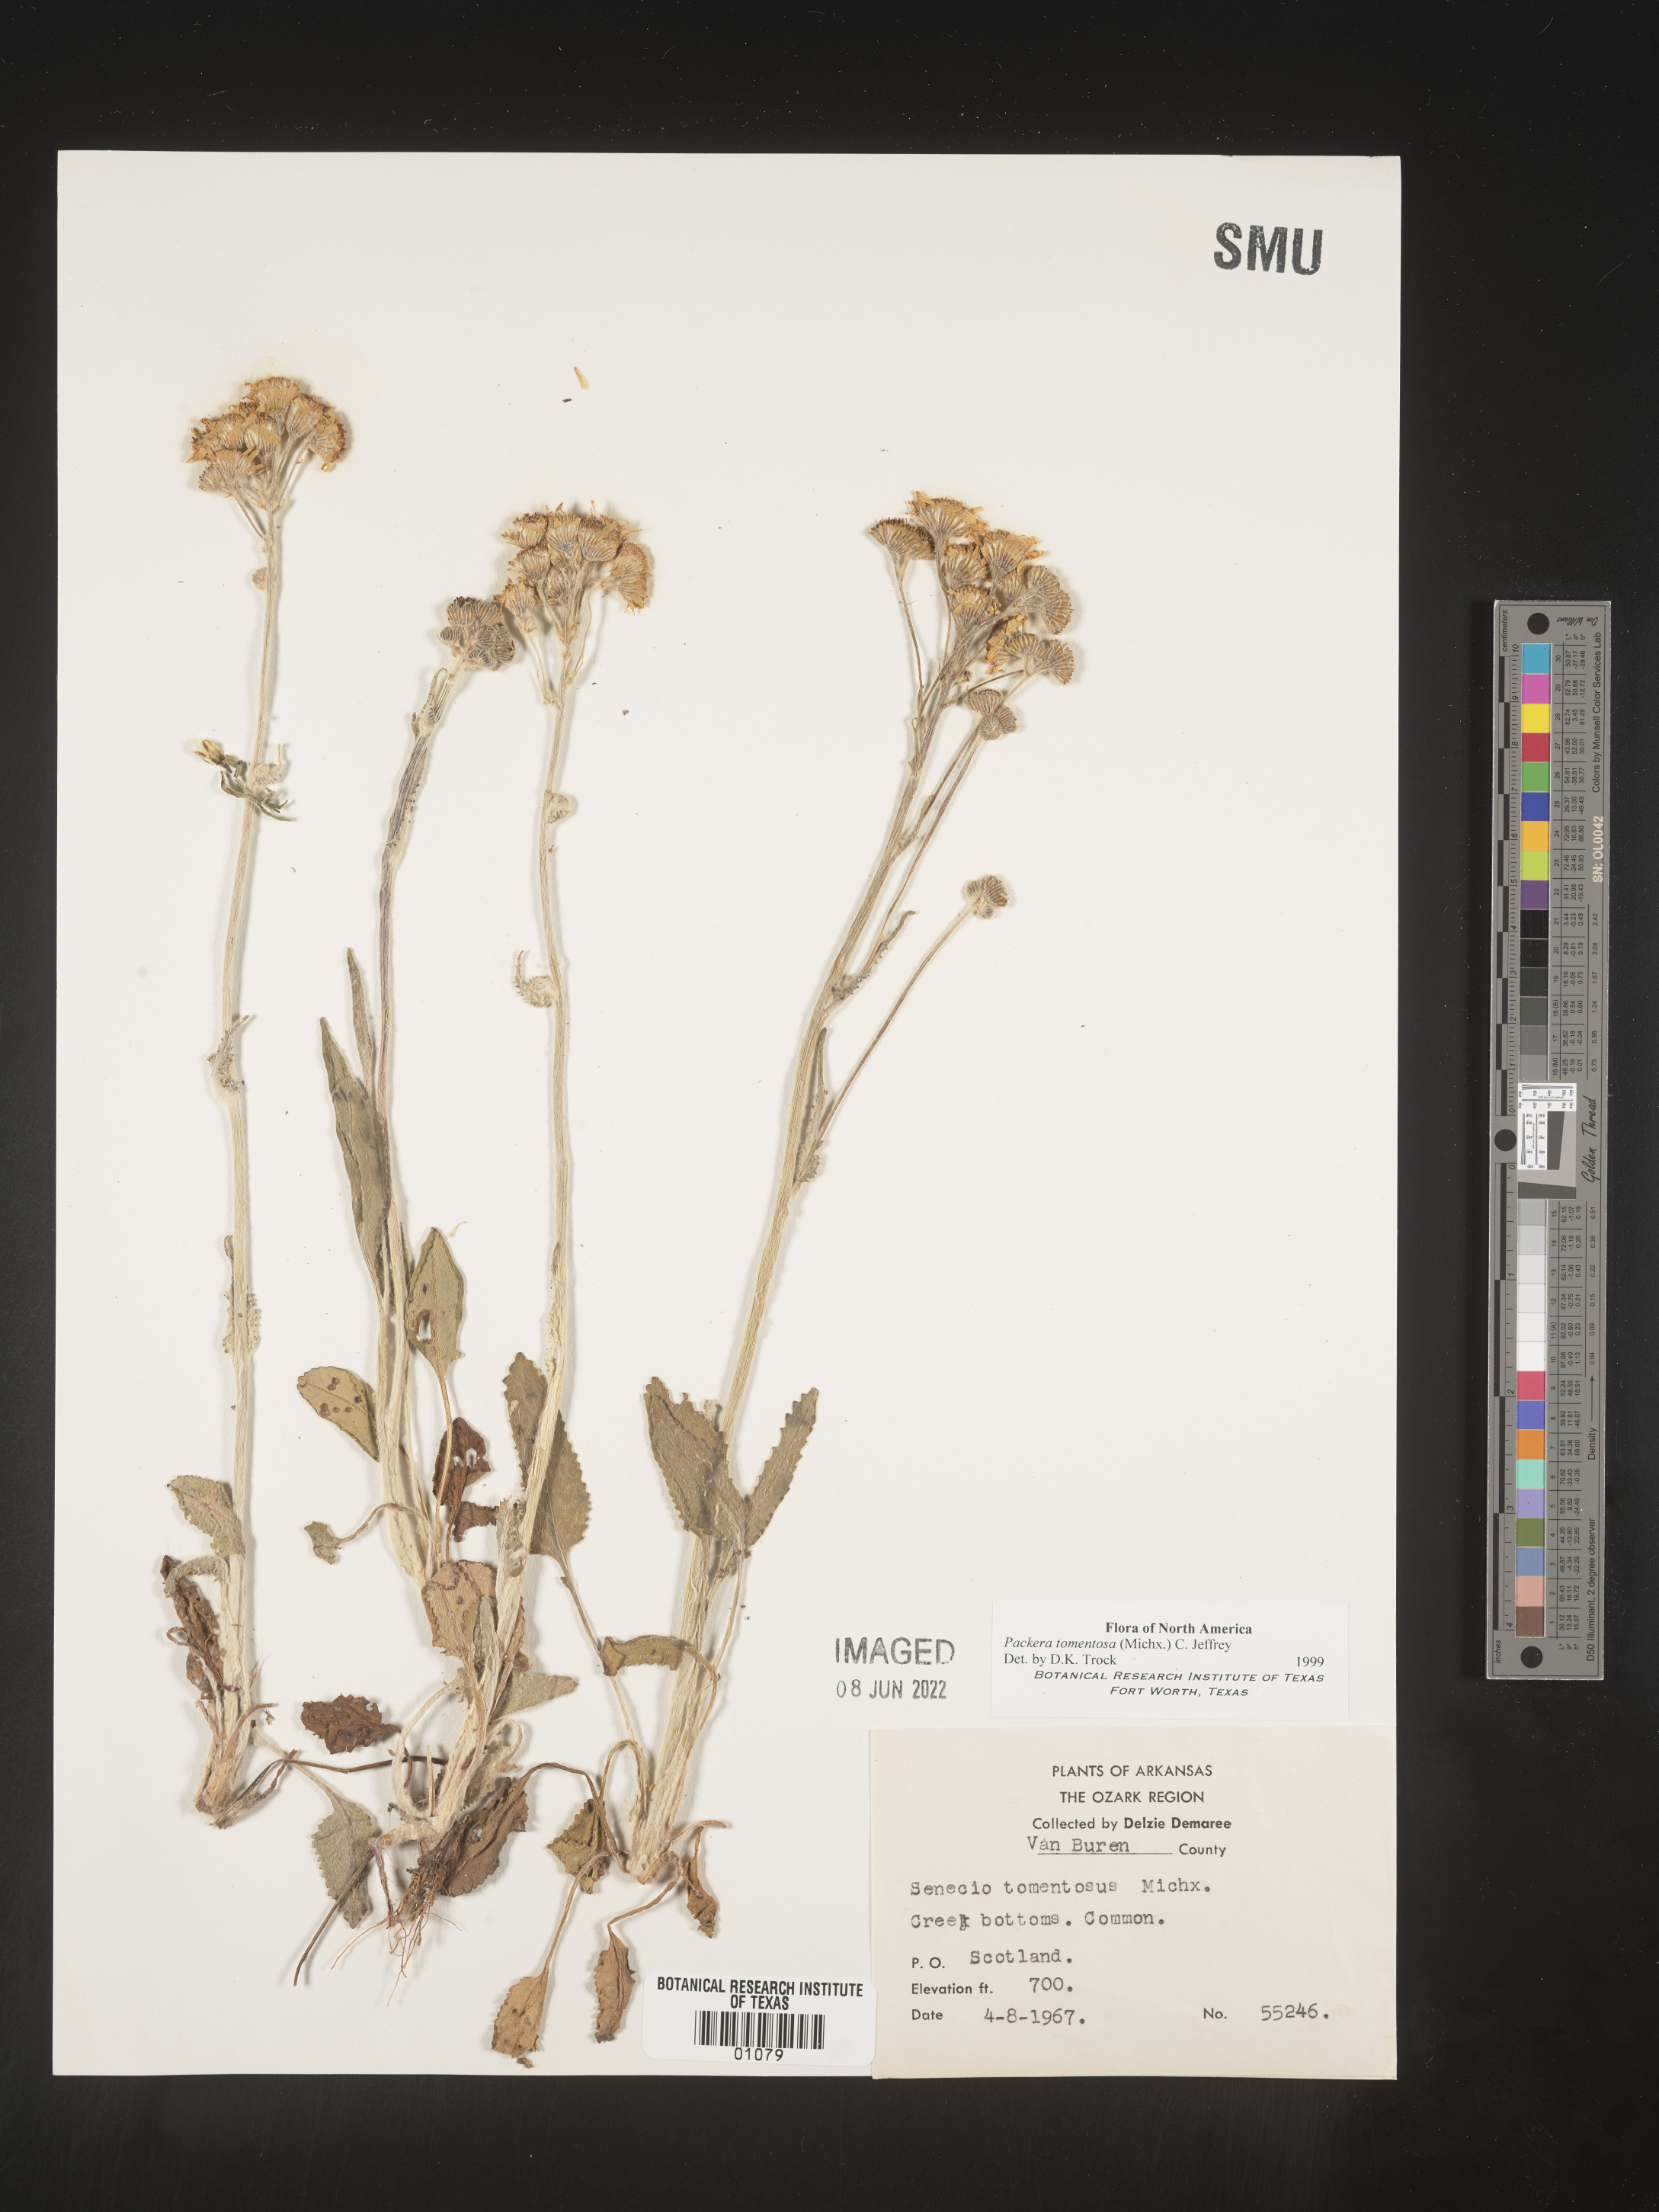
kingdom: Plantae
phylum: Tracheophyta
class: Magnoliopsida
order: Asterales
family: Asteraceae
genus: Packera
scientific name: Packera dubia
